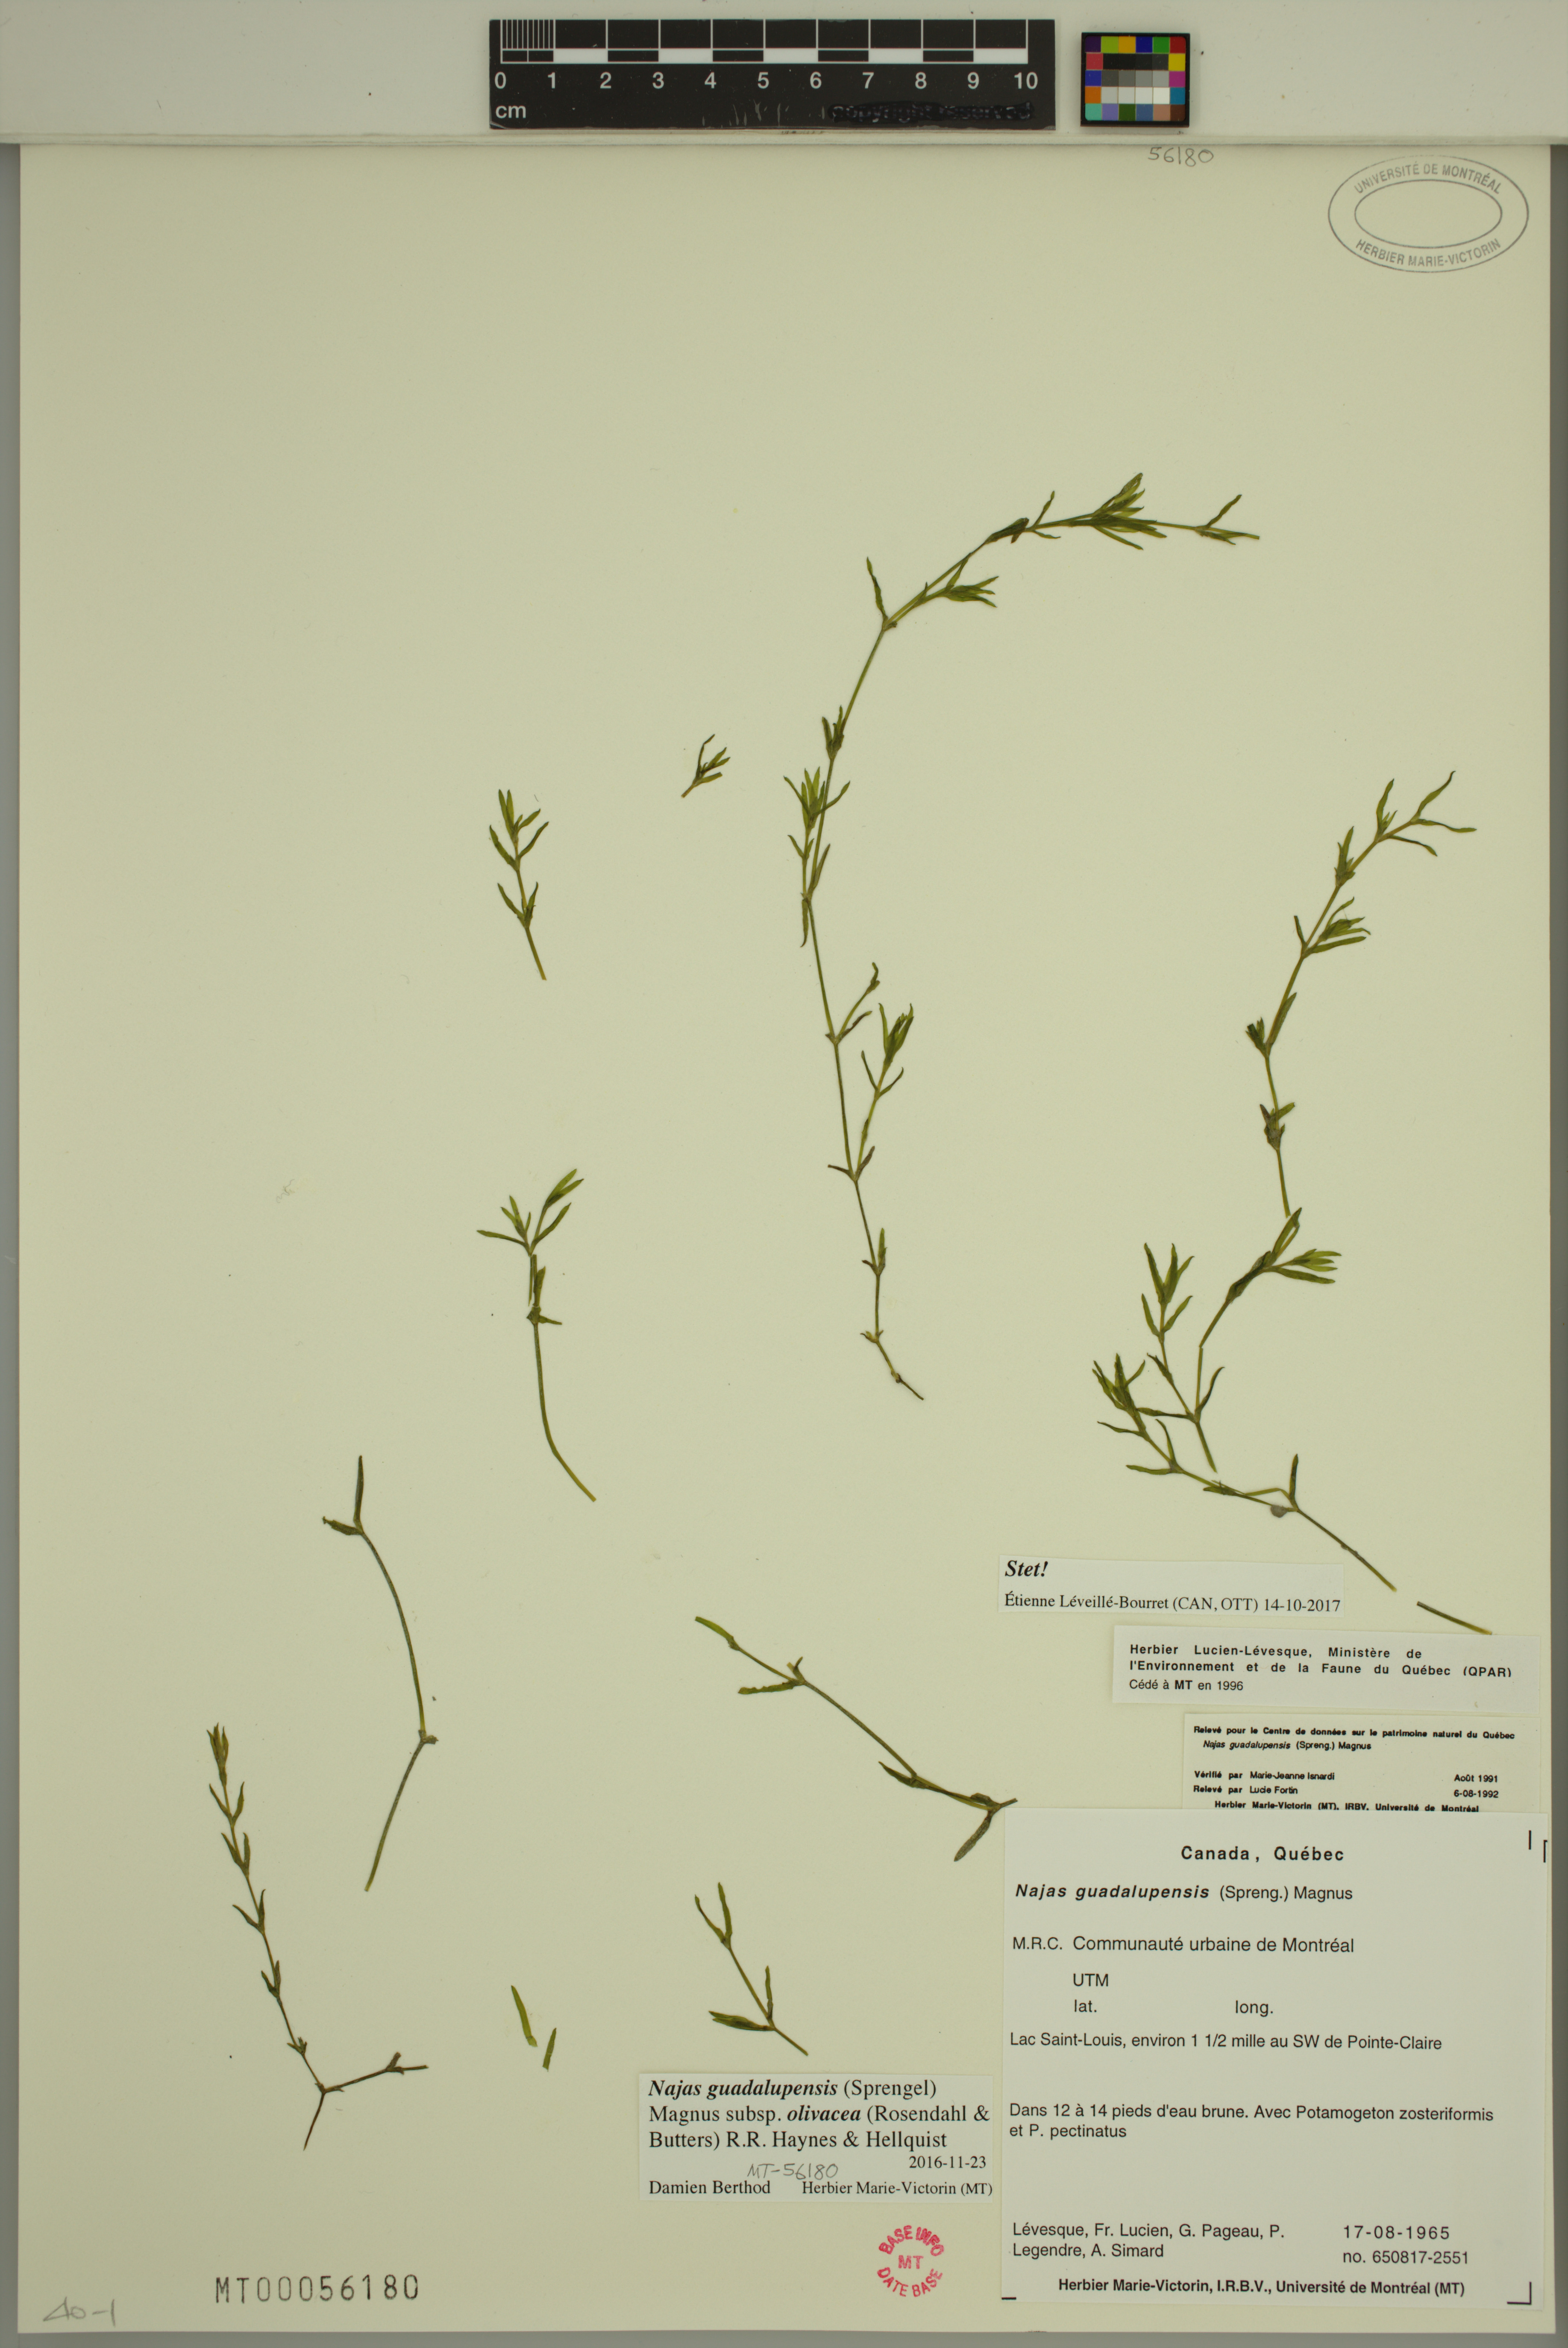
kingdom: Plantae
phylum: Tracheophyta
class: Liliopsida
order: Alismatales
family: Hydrocharitaceae
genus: Najas
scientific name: Najas guadalupensis
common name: Southern naiad
